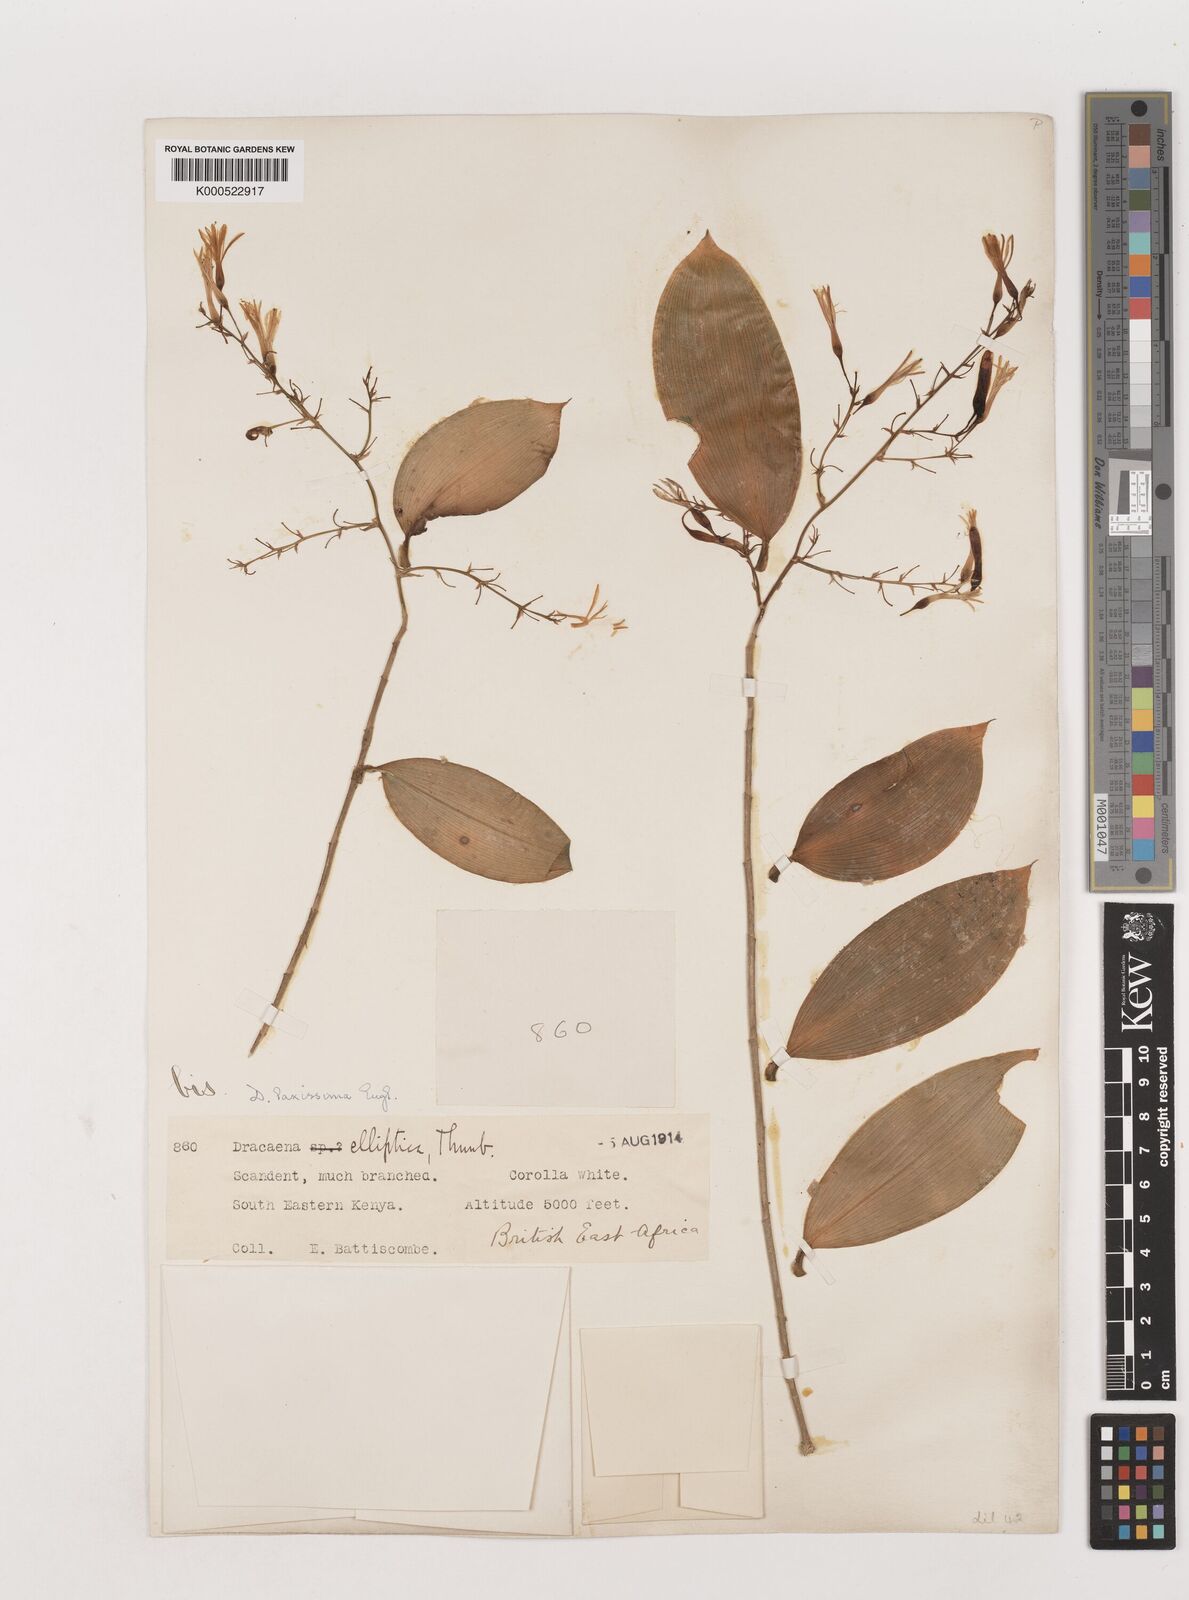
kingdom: Plantae
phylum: Tracheophyta
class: Liliopsida
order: Asparagales
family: Asparagaceae
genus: Dracaena
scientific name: Dracaena laxissima
